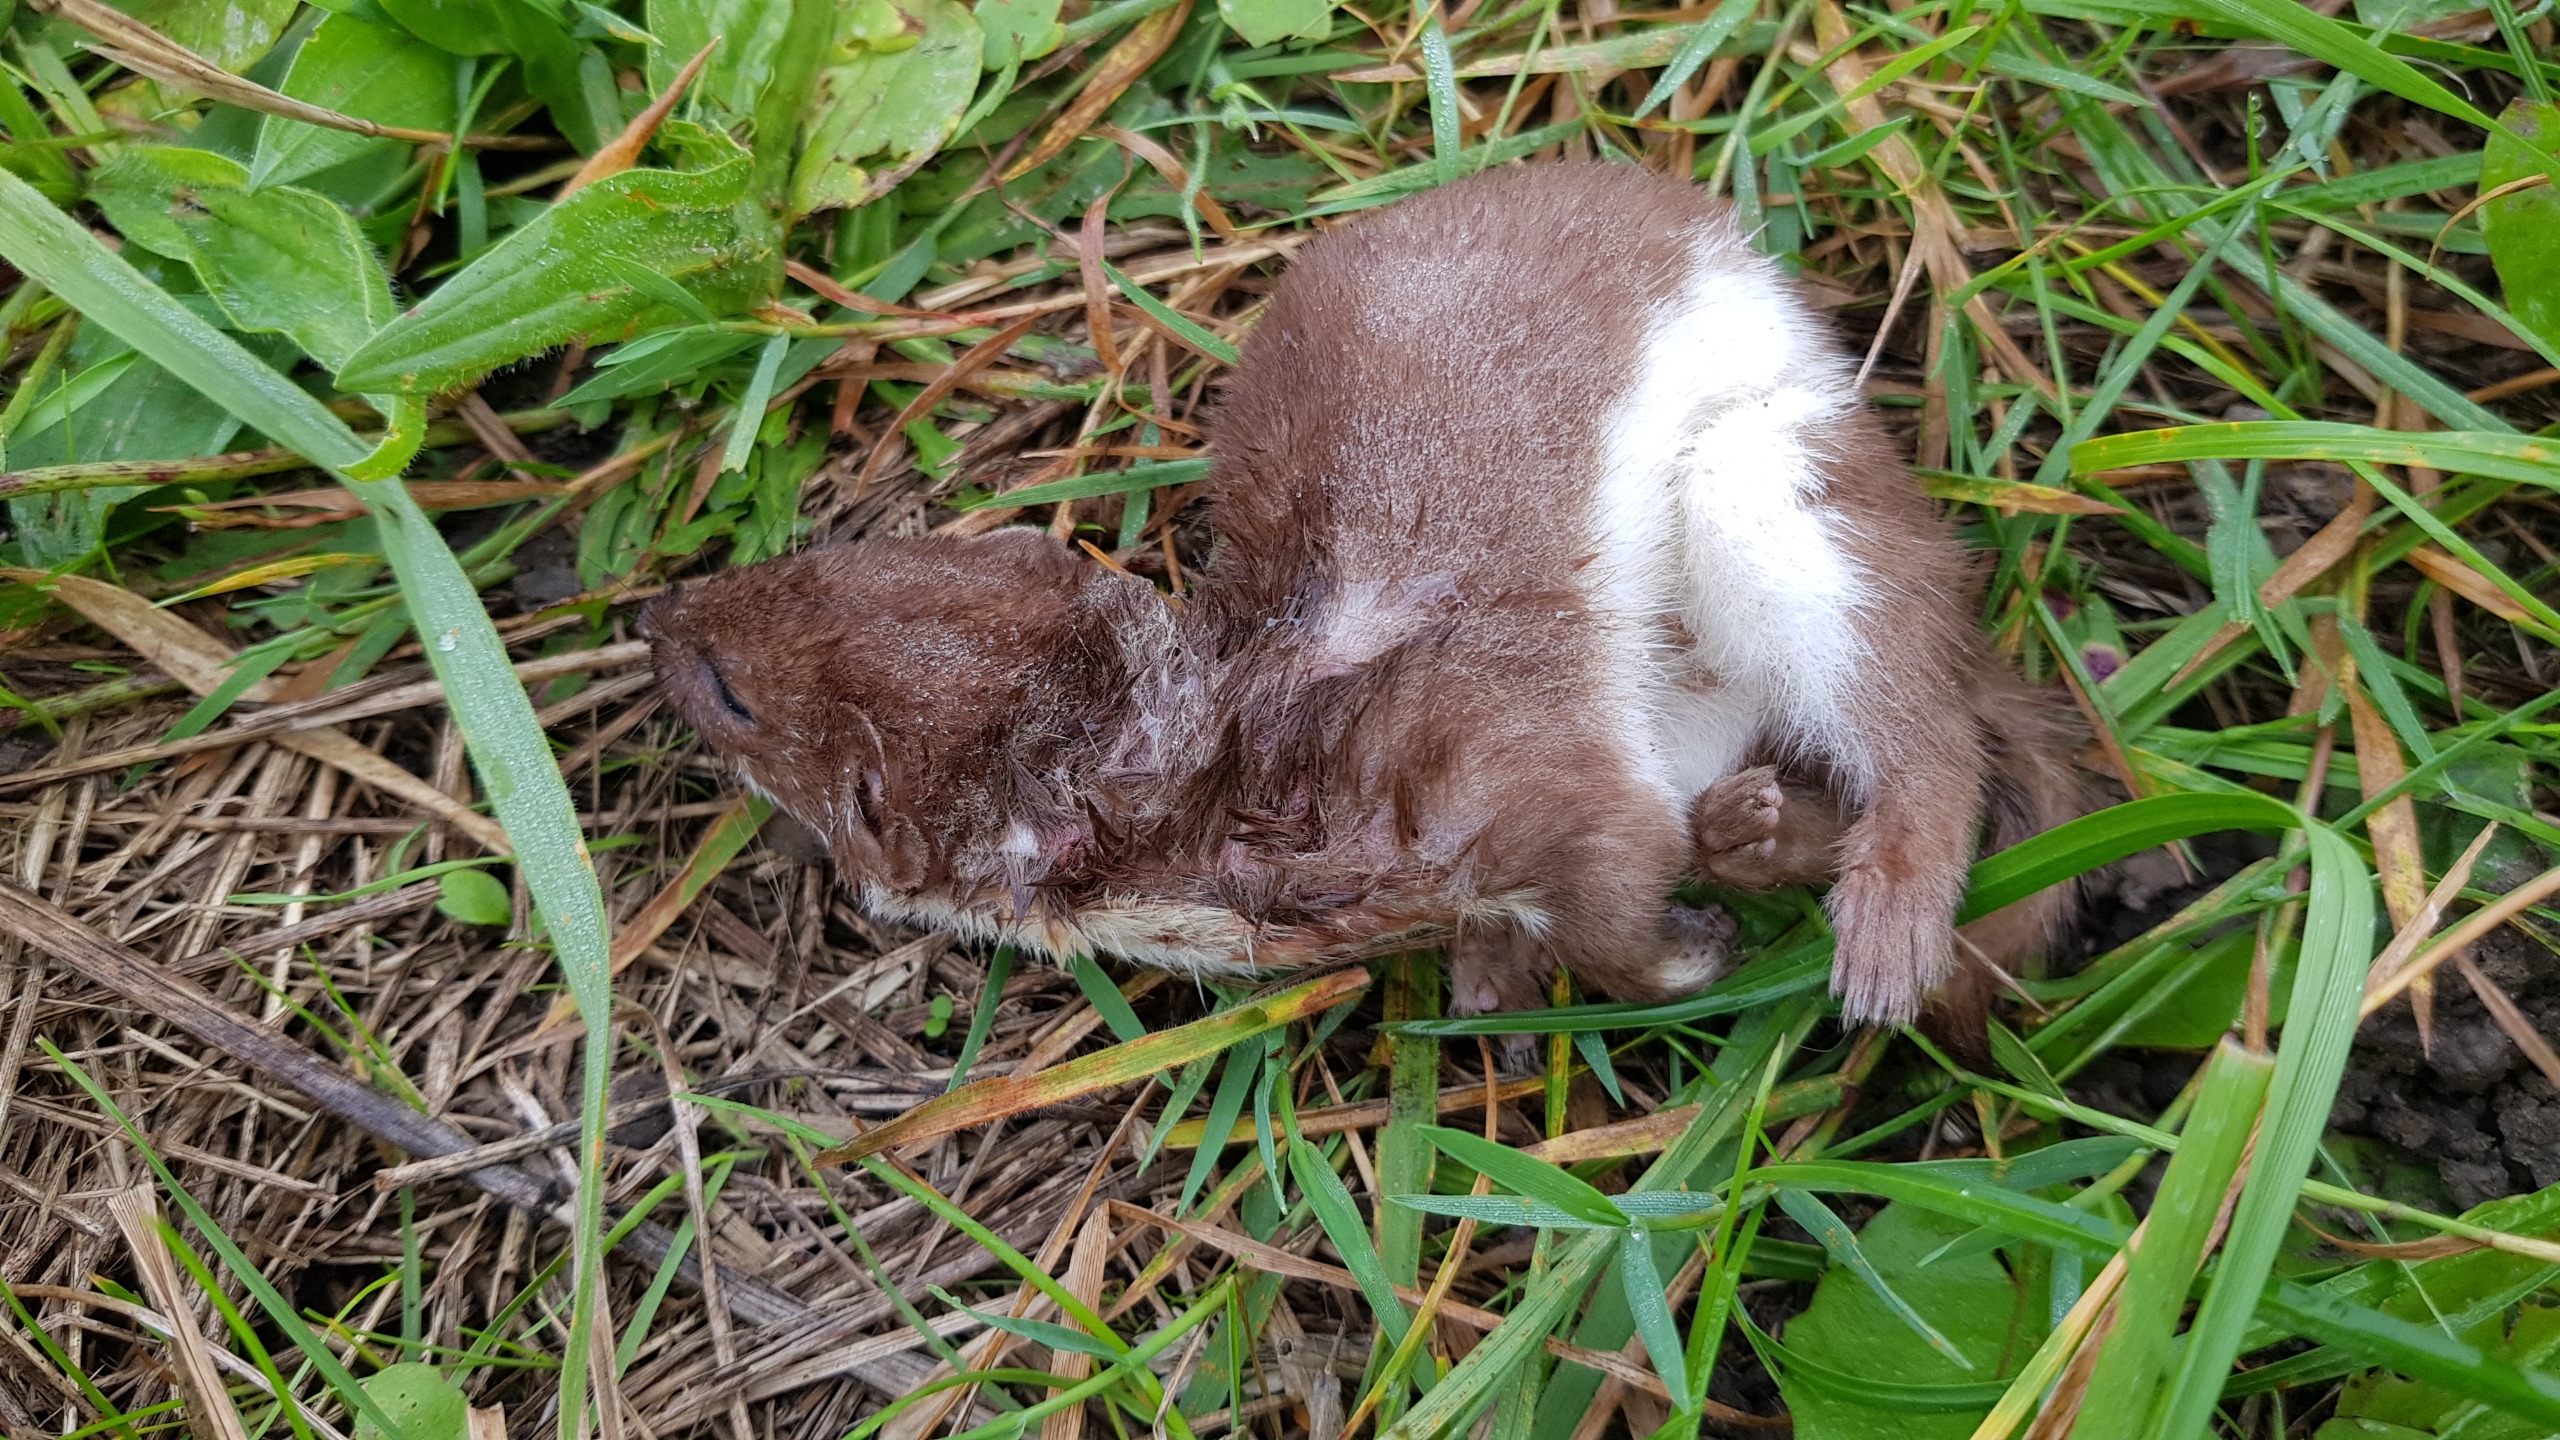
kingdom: Animalia
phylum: Chordata
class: Mammalia
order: Carnivora
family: Mustelidae
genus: Mustela
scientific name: Mustela nivalis
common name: Brud
